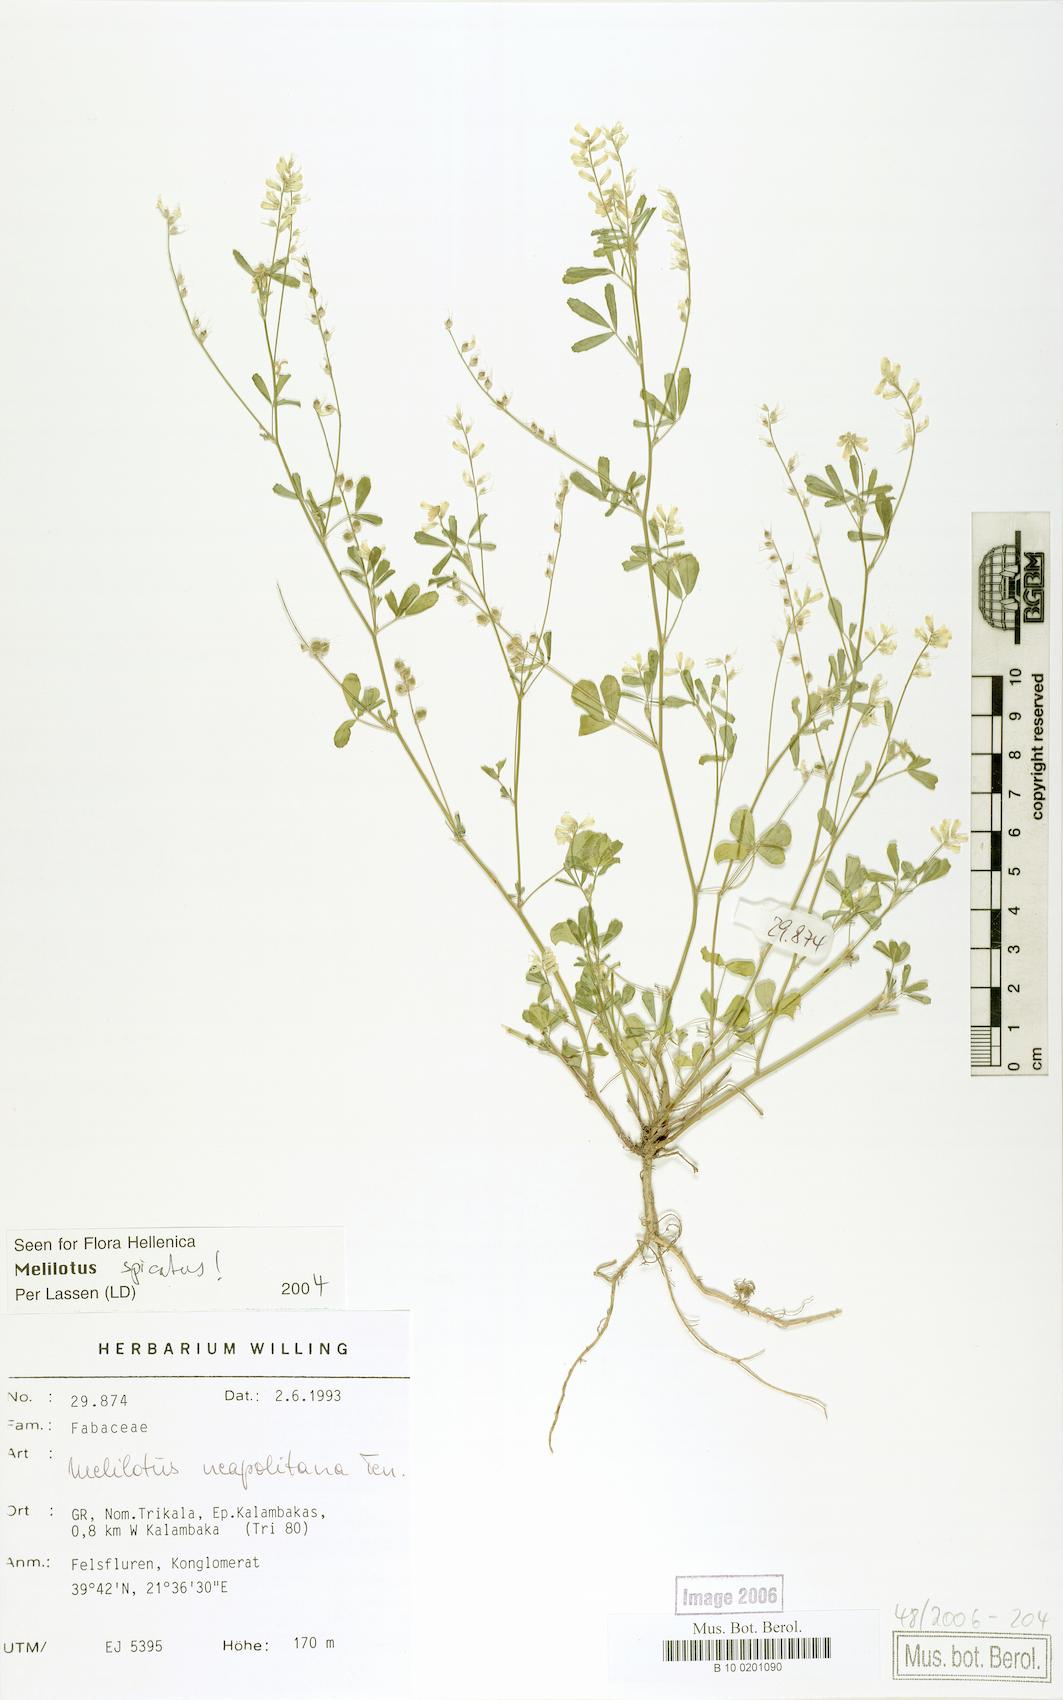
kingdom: Plantae
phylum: Tracheophyta
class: Magnoliopsida
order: Fabales
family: Fabaceae
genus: Melilotus
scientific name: Melilotus neapolitanus
